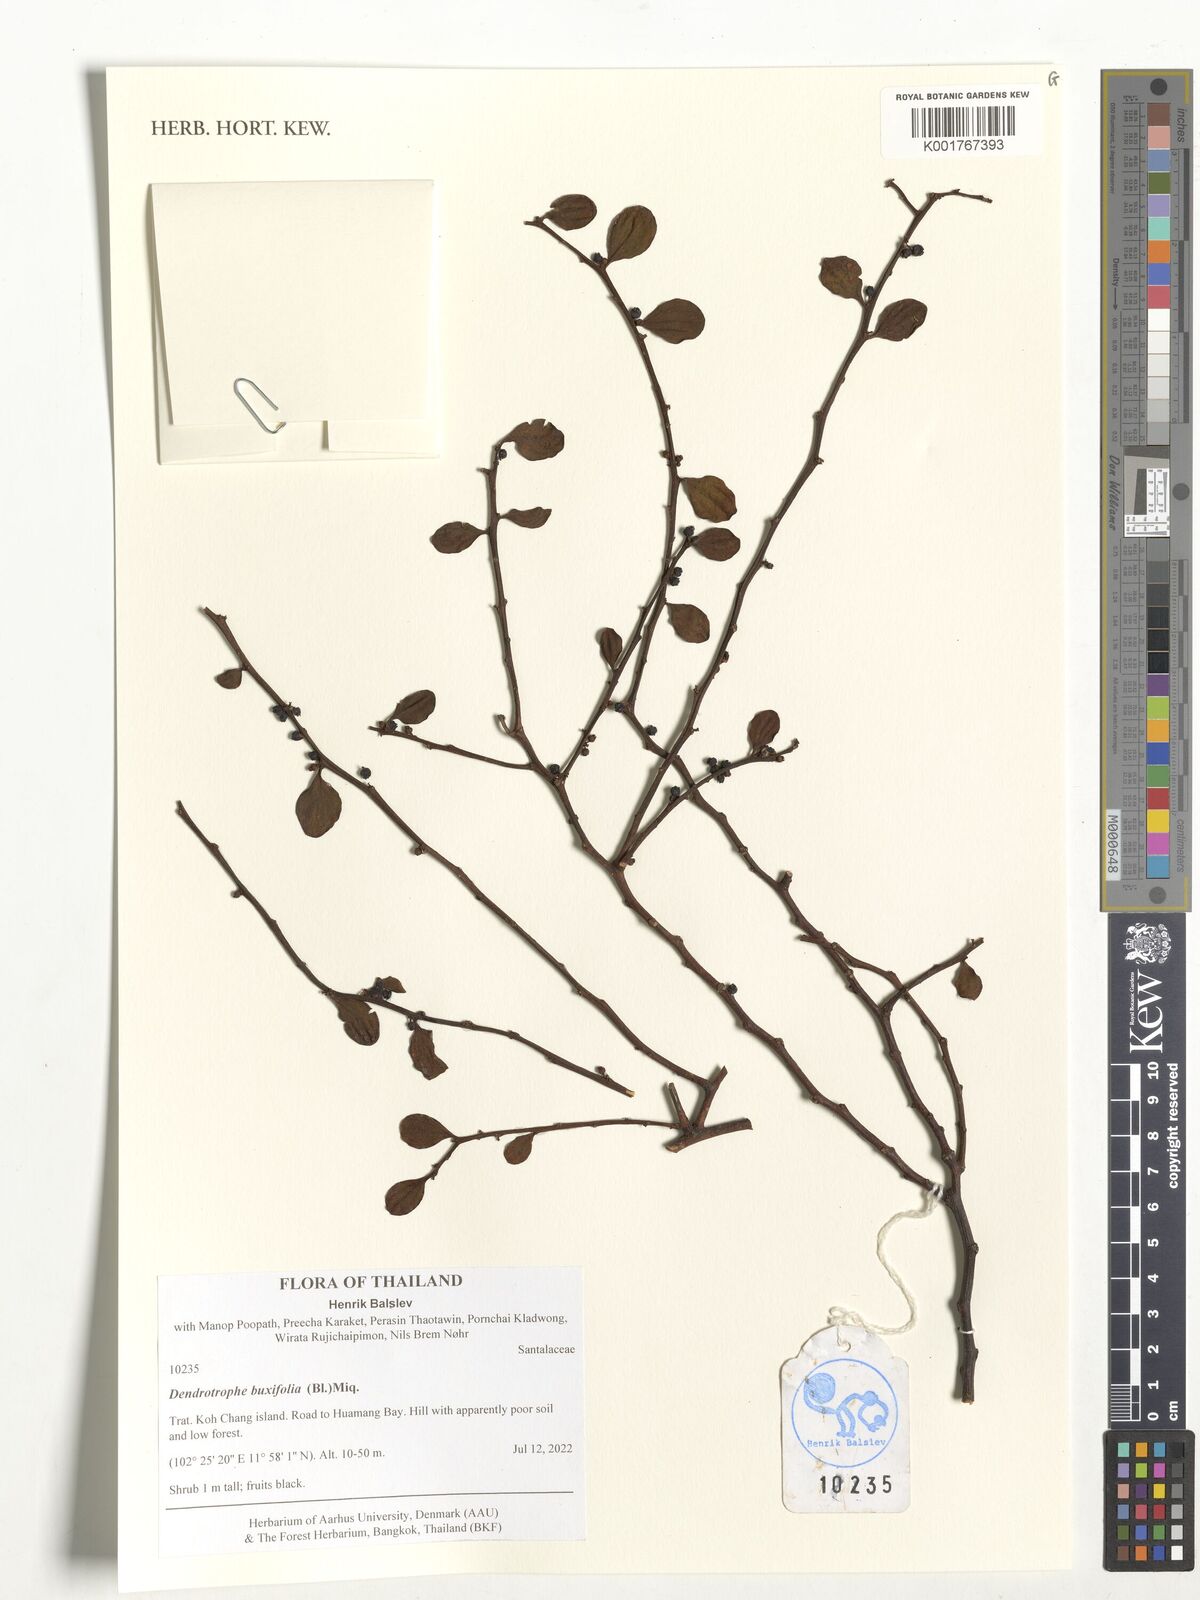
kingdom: Plantae
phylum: Tracheophyta
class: Magnoliopsida
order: Santalales
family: Amphorogynaceae
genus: Dendrotrophe
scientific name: Dendrotrophe buxifolia
